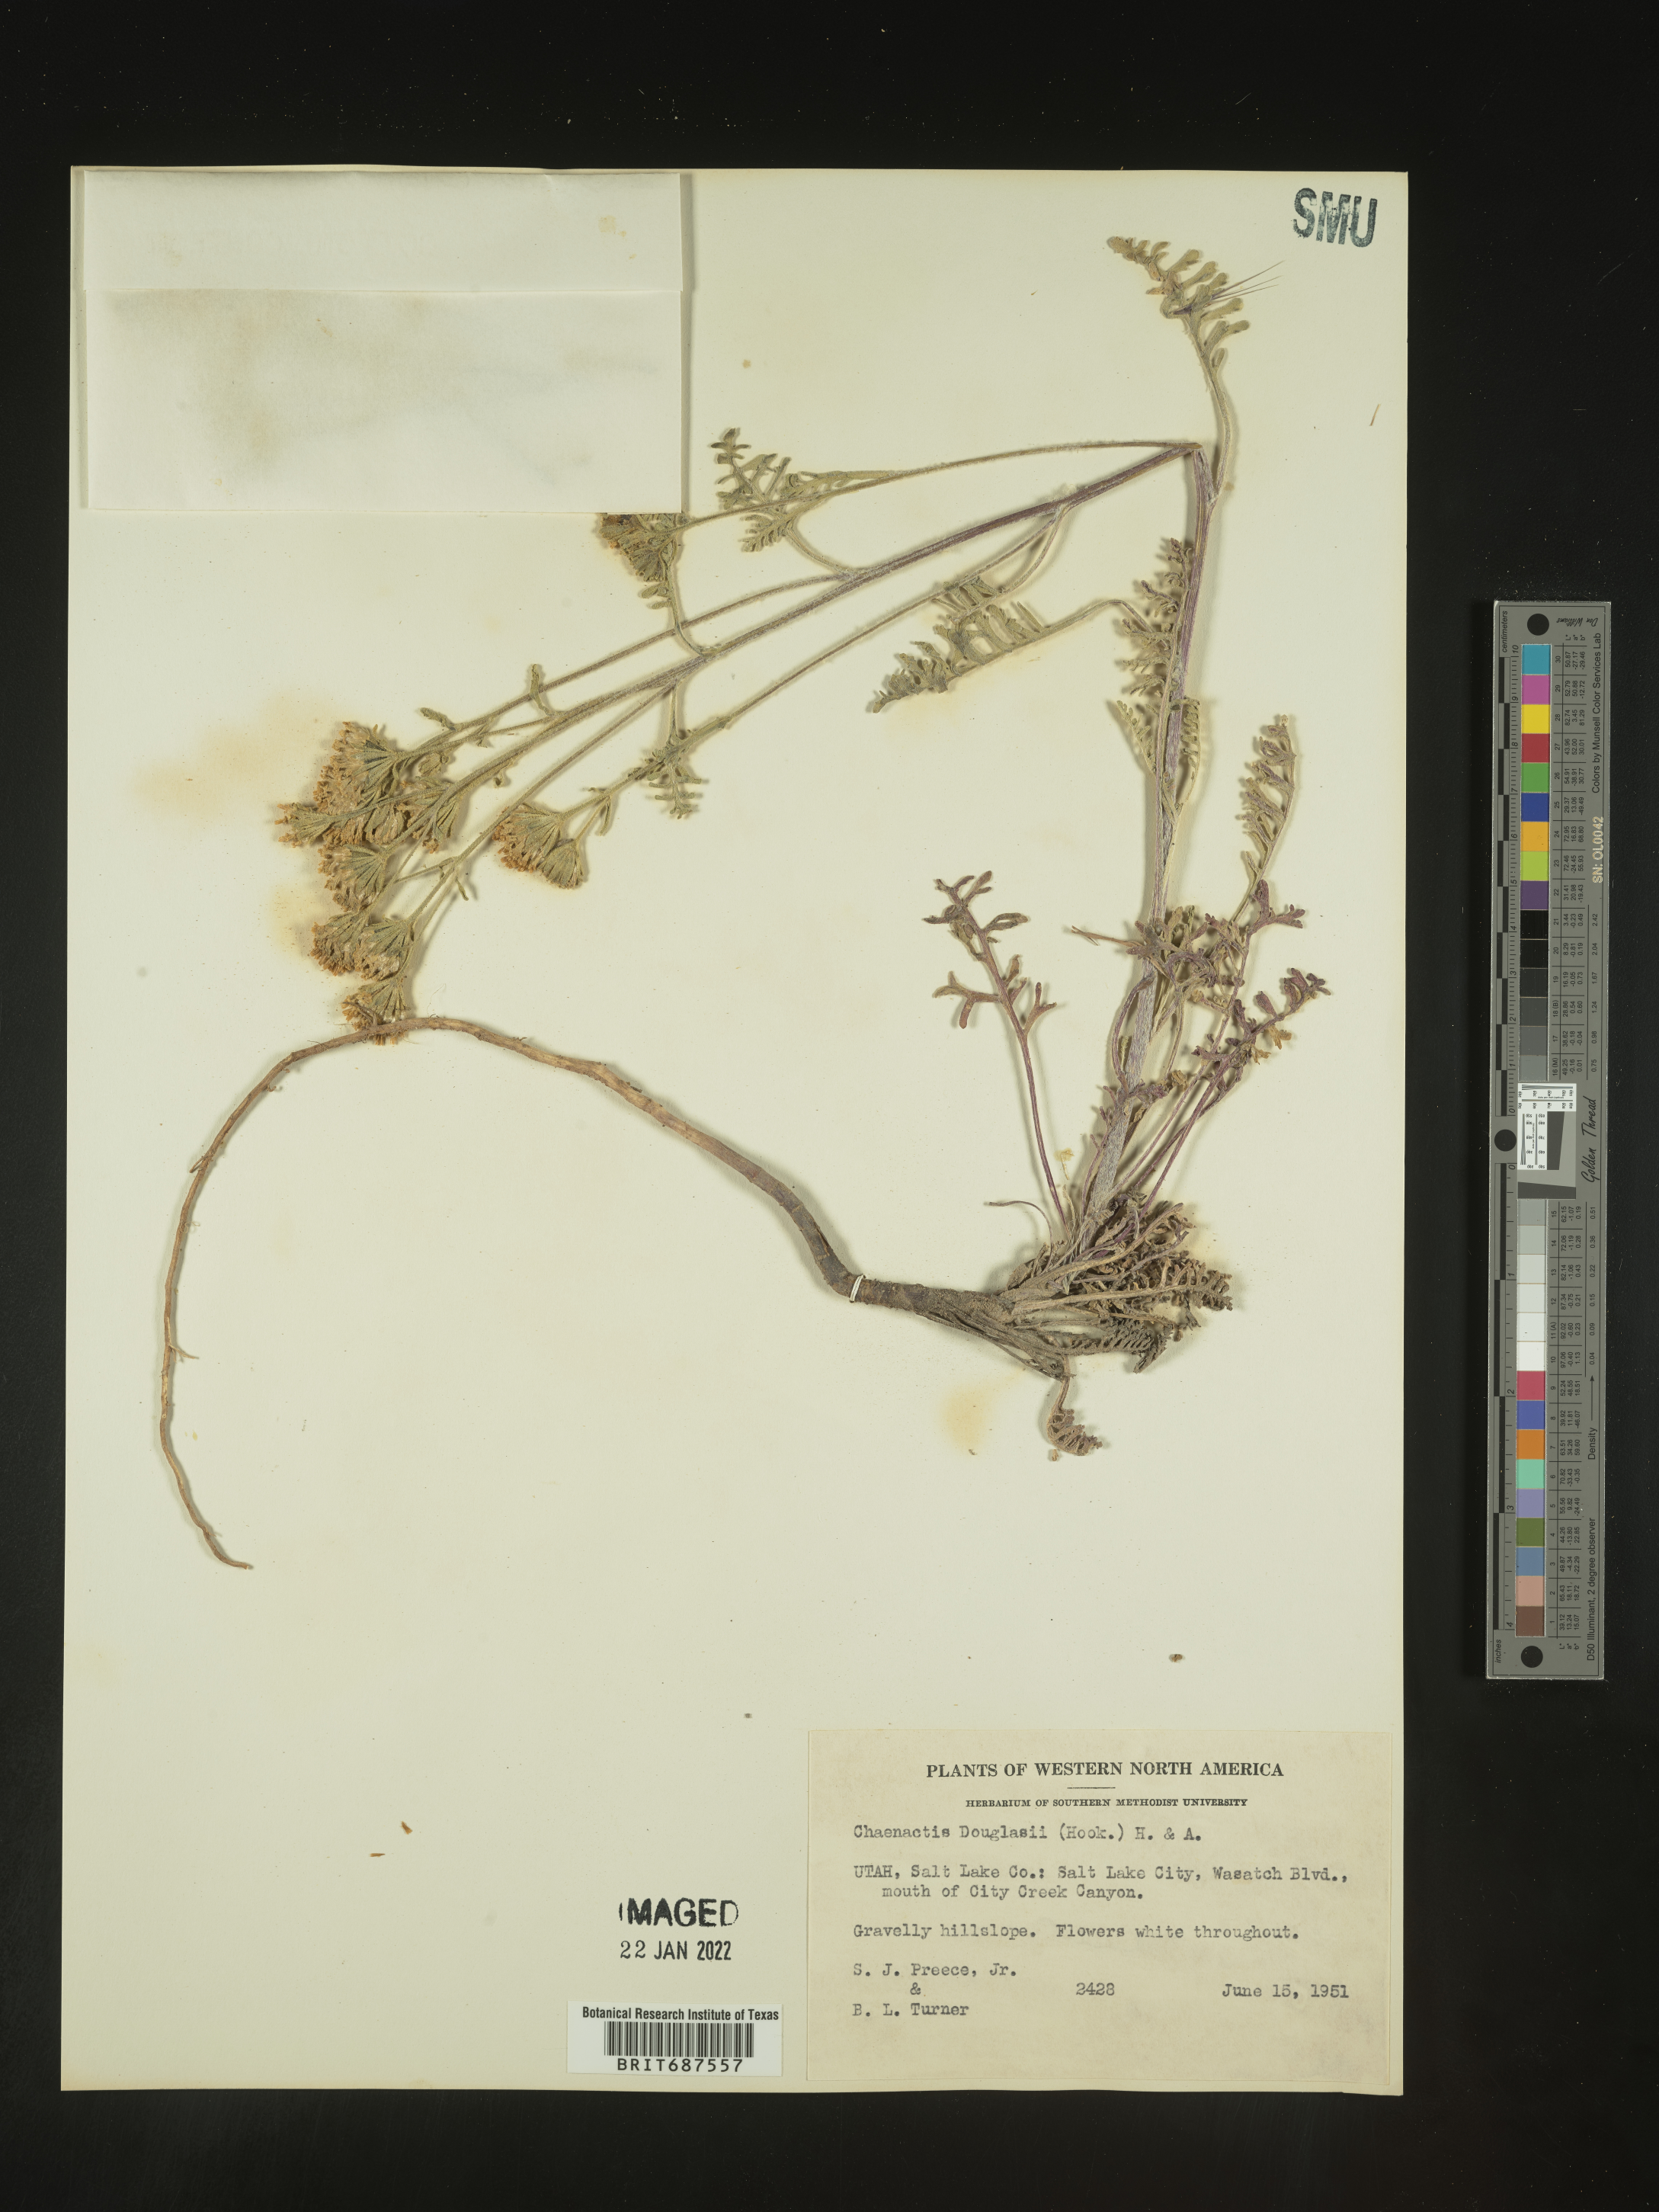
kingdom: Plantae
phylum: Tracheophyta
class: Magnoliopsida
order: Asterales
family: Asteraceae
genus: Chaenactis
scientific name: Chaenactis douglasii
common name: Hoary pincushion
